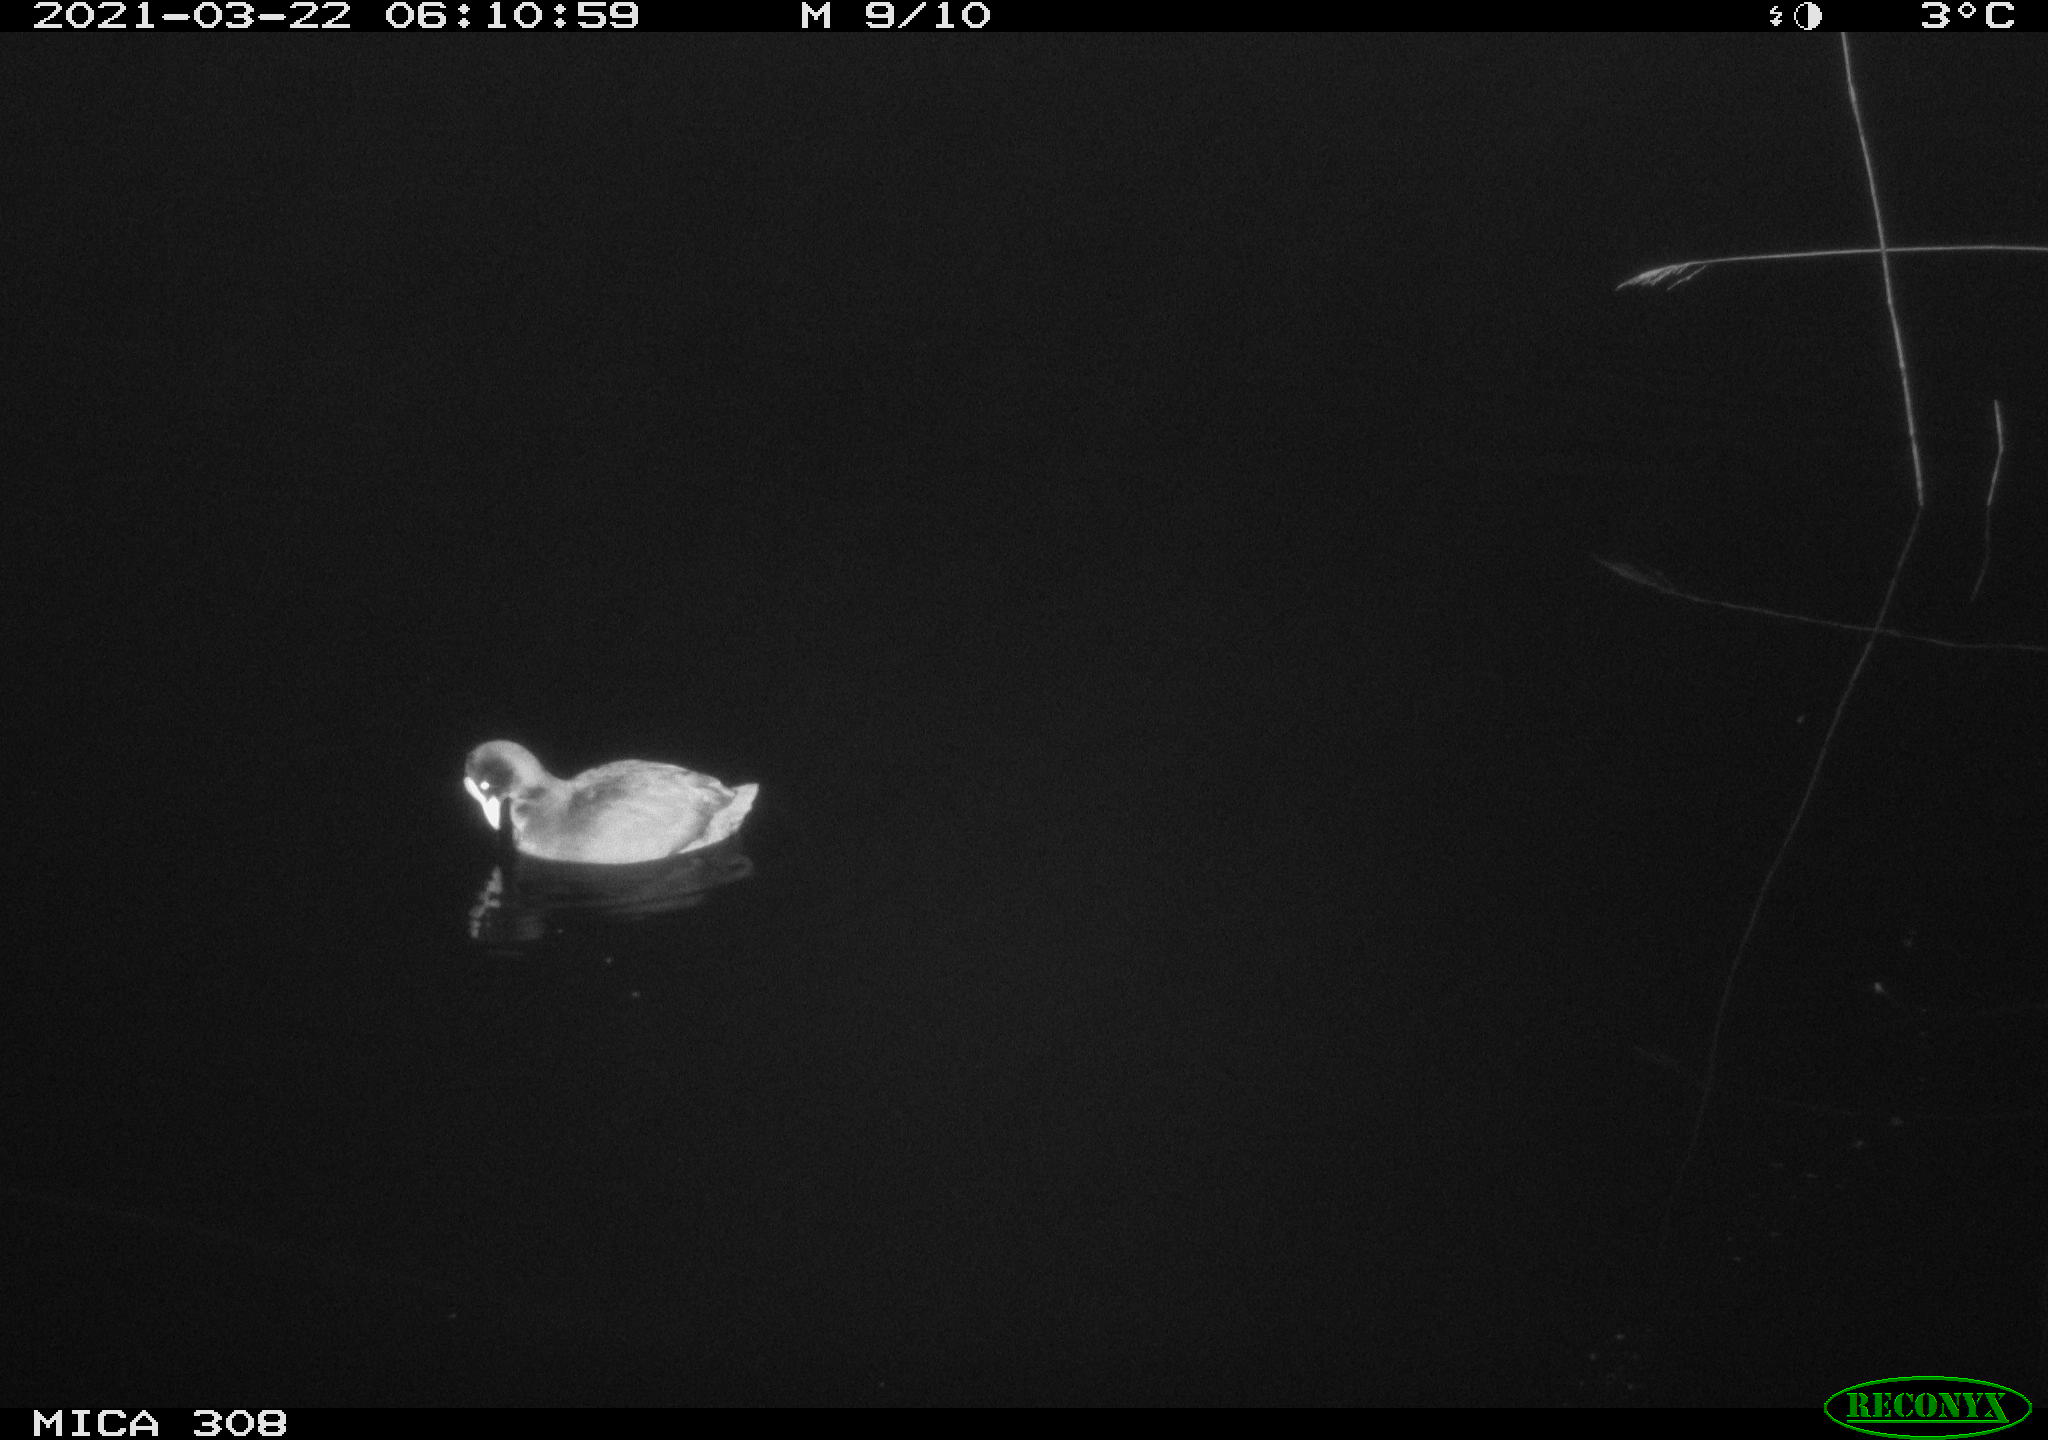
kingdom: Animalia
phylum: Chordata
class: Aves
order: Gruiformes
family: Rallidae
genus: Fulica
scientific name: Fulica atra
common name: Eurasian coot
